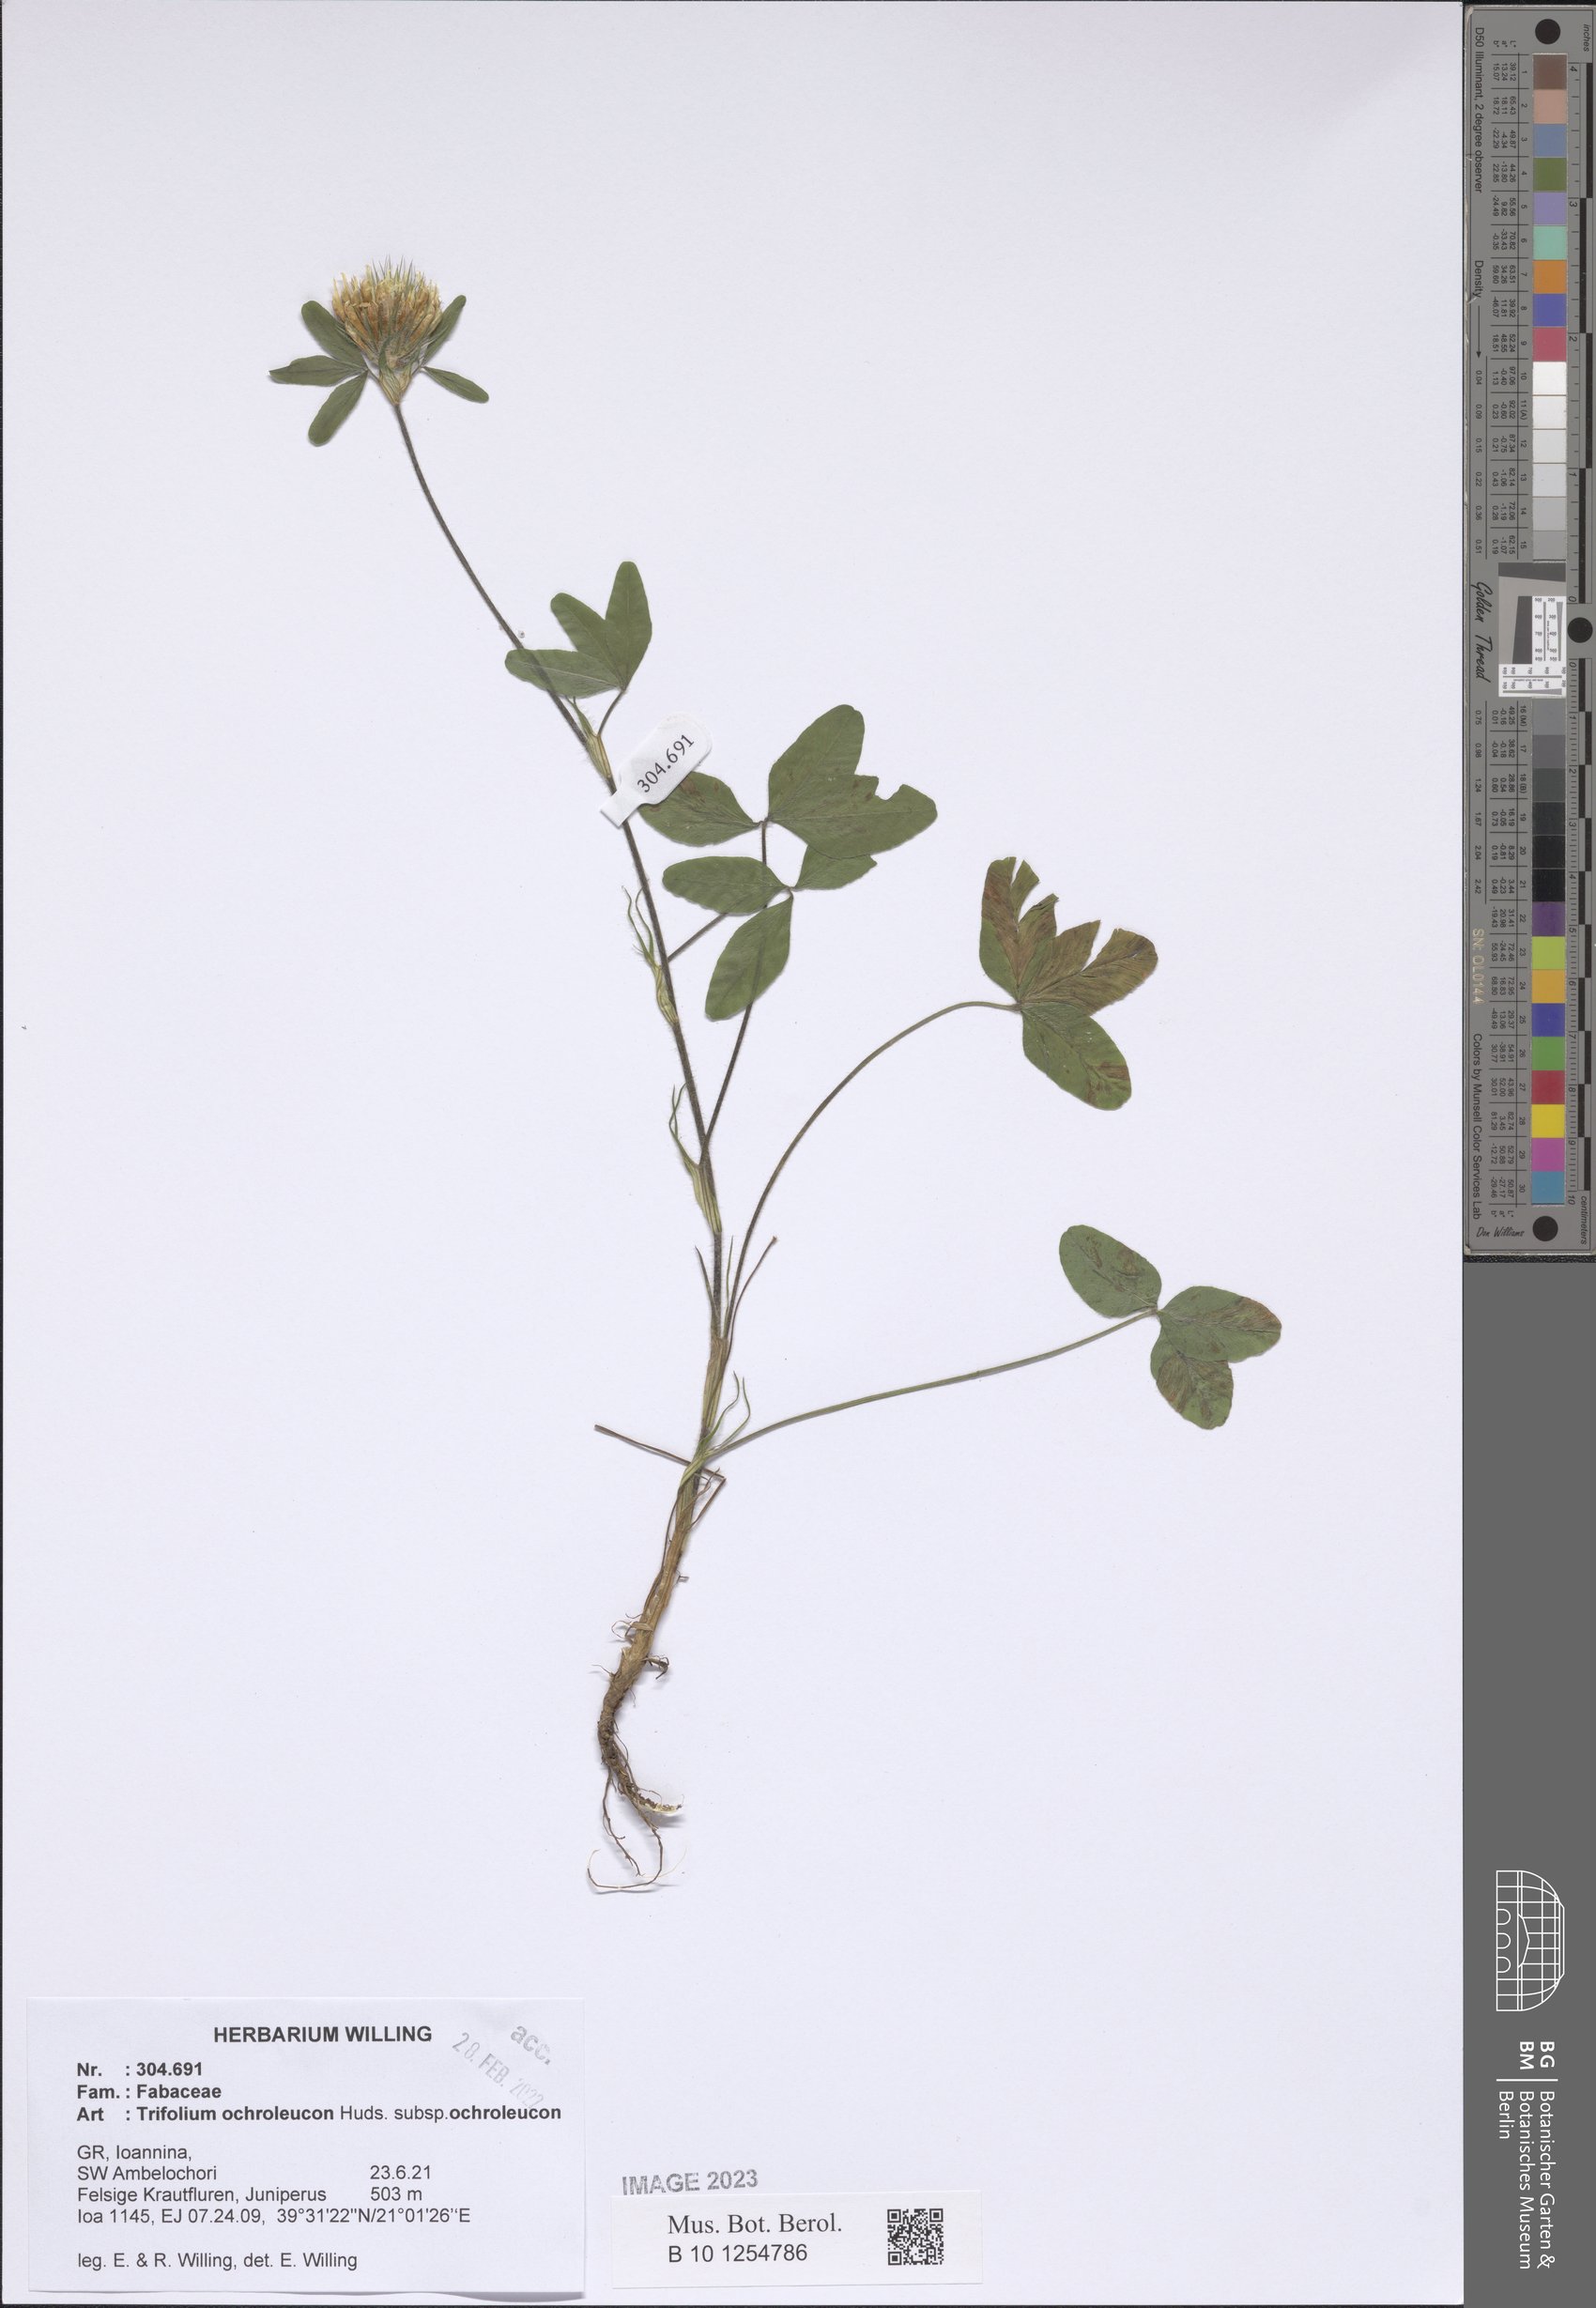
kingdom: Plantae
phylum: Tracheophyta
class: Magnoliopsida
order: Fabales
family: Fabaceae
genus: Trifolium
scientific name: Trifolium ochroleucon
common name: Sulphur clover
